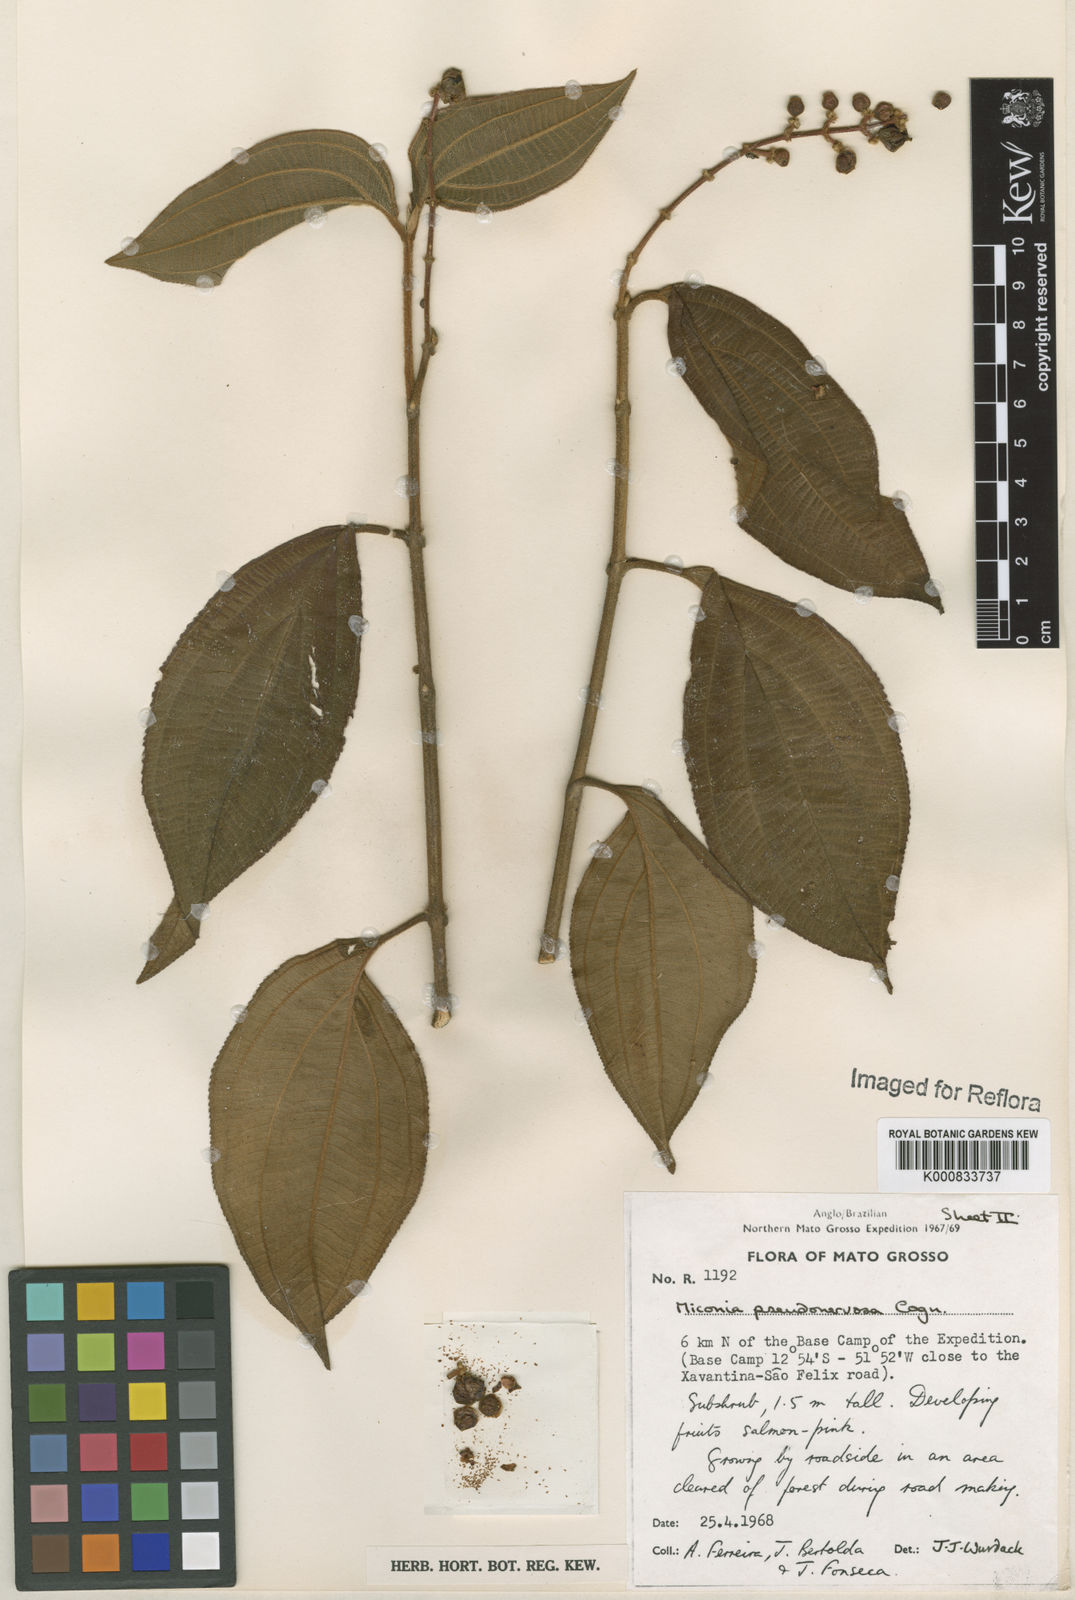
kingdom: Plantae
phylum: Tracheophyta
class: Magnoliopsida
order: Myrtales
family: Melastomataceae
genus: Miconia
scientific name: Miconia pseudonervosa
